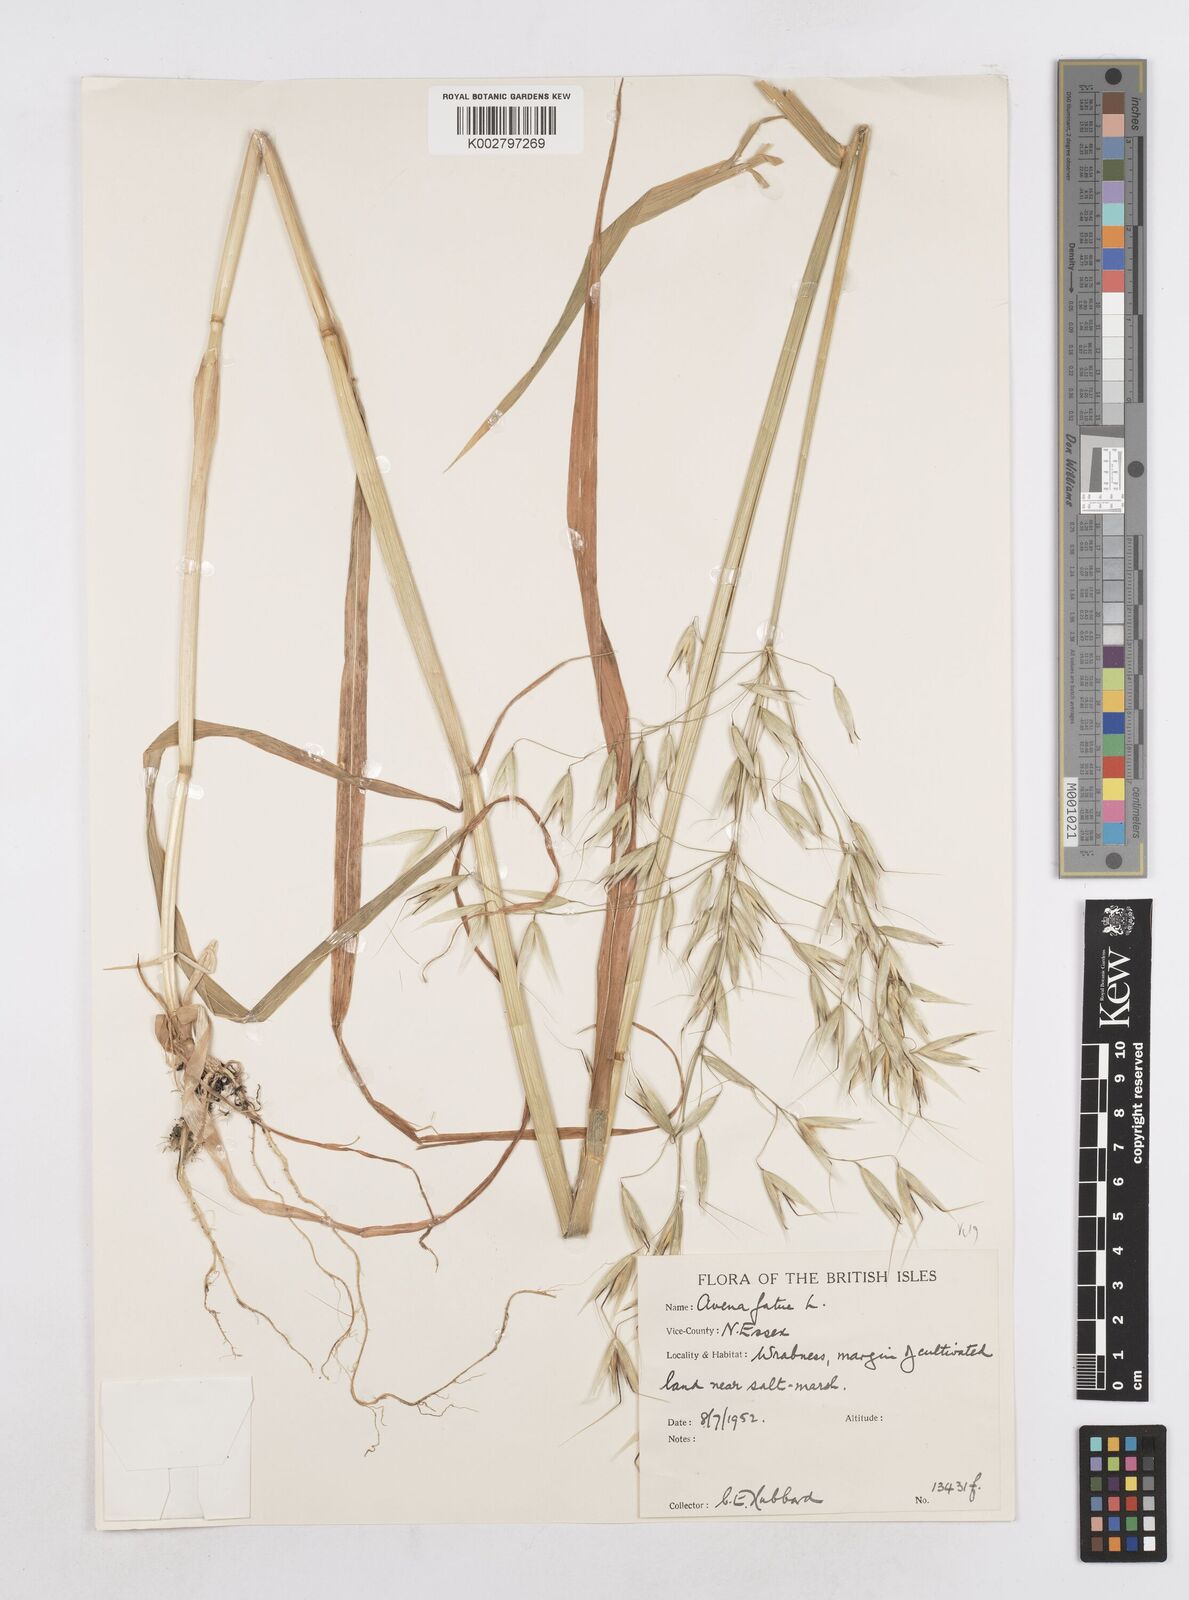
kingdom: Plantae
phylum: Tracheophyta
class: Liliopsida
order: Poales
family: Poaceae
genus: Avena
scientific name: Avena fatua
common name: Wild oat
